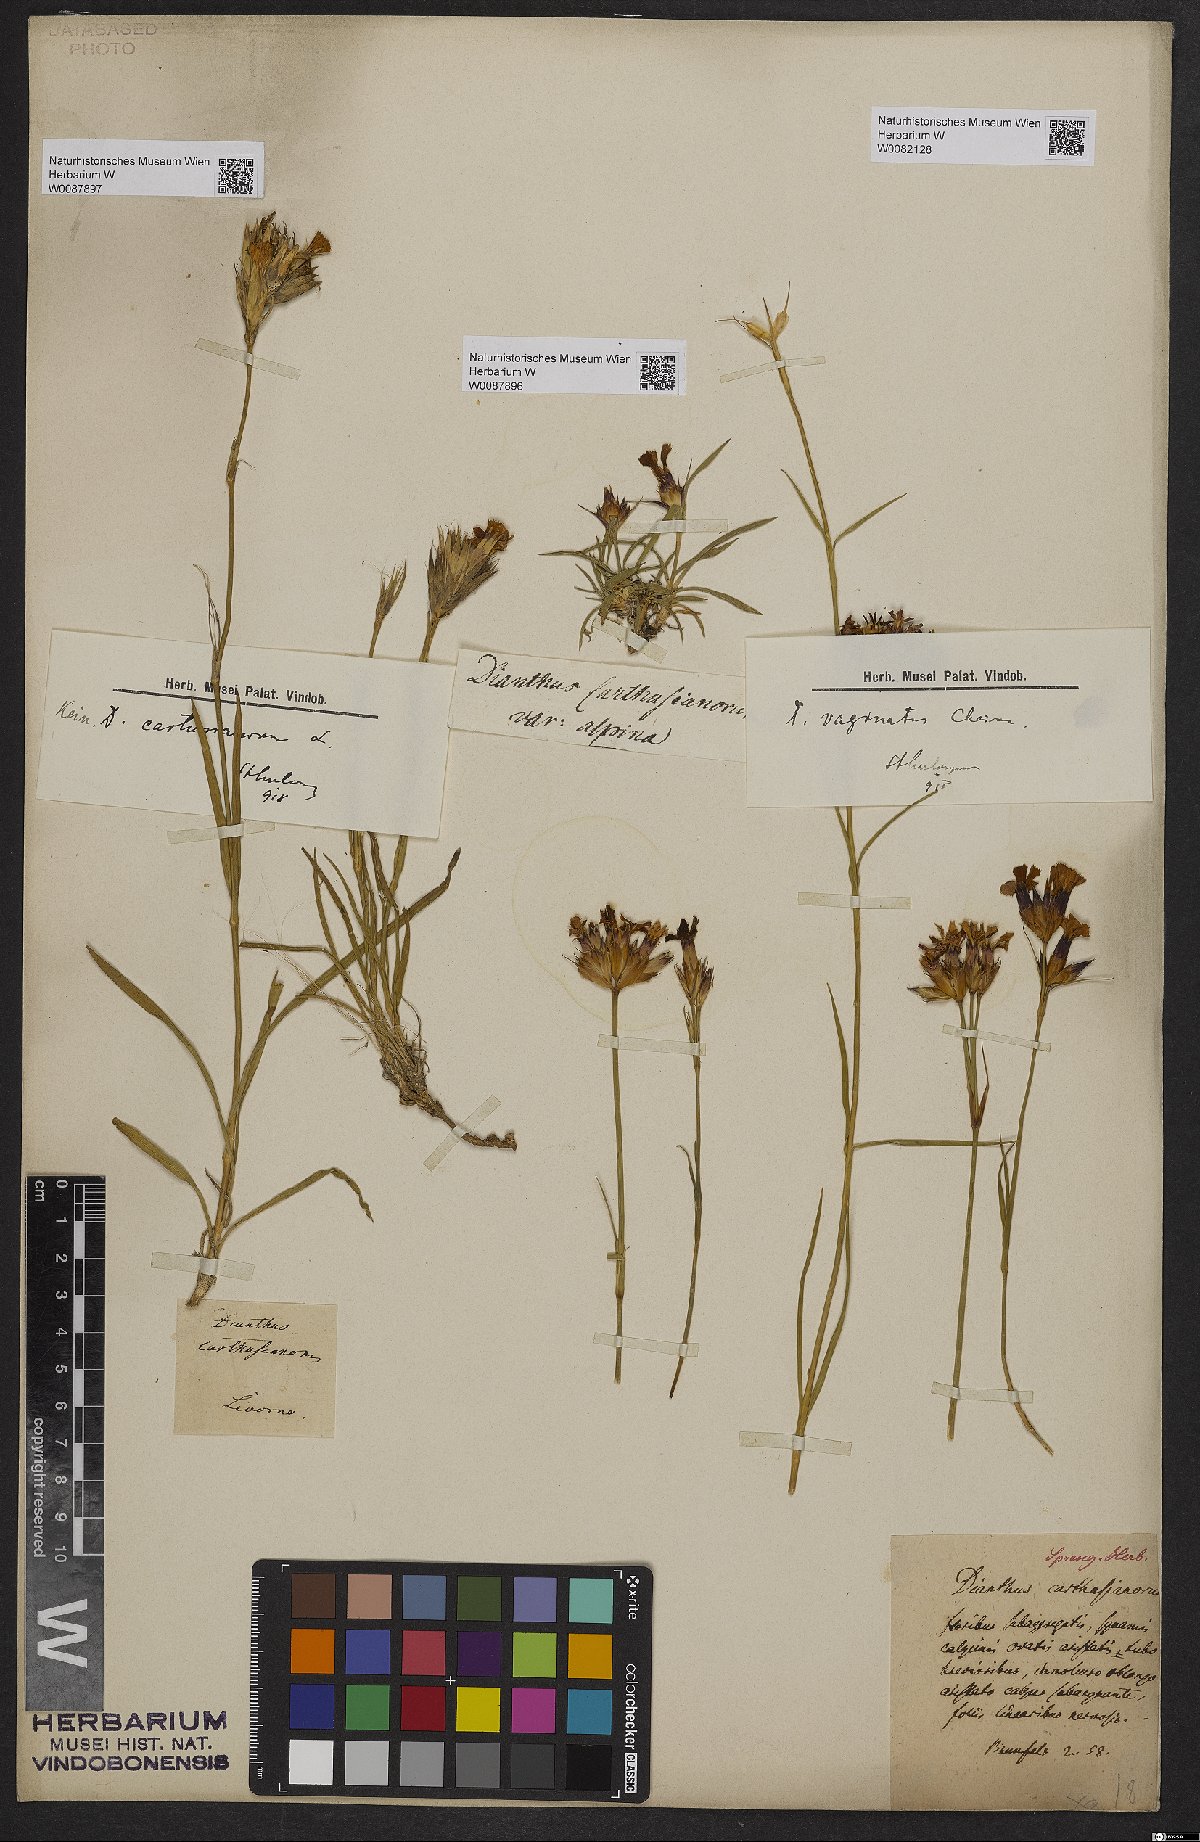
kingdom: Plantae
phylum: Tracheophyta
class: Magnoliopsida
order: Caryophyllales
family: Caryophyllaceae
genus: Dianthus
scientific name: Dianthus carthusianorum
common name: Carthusian pink
